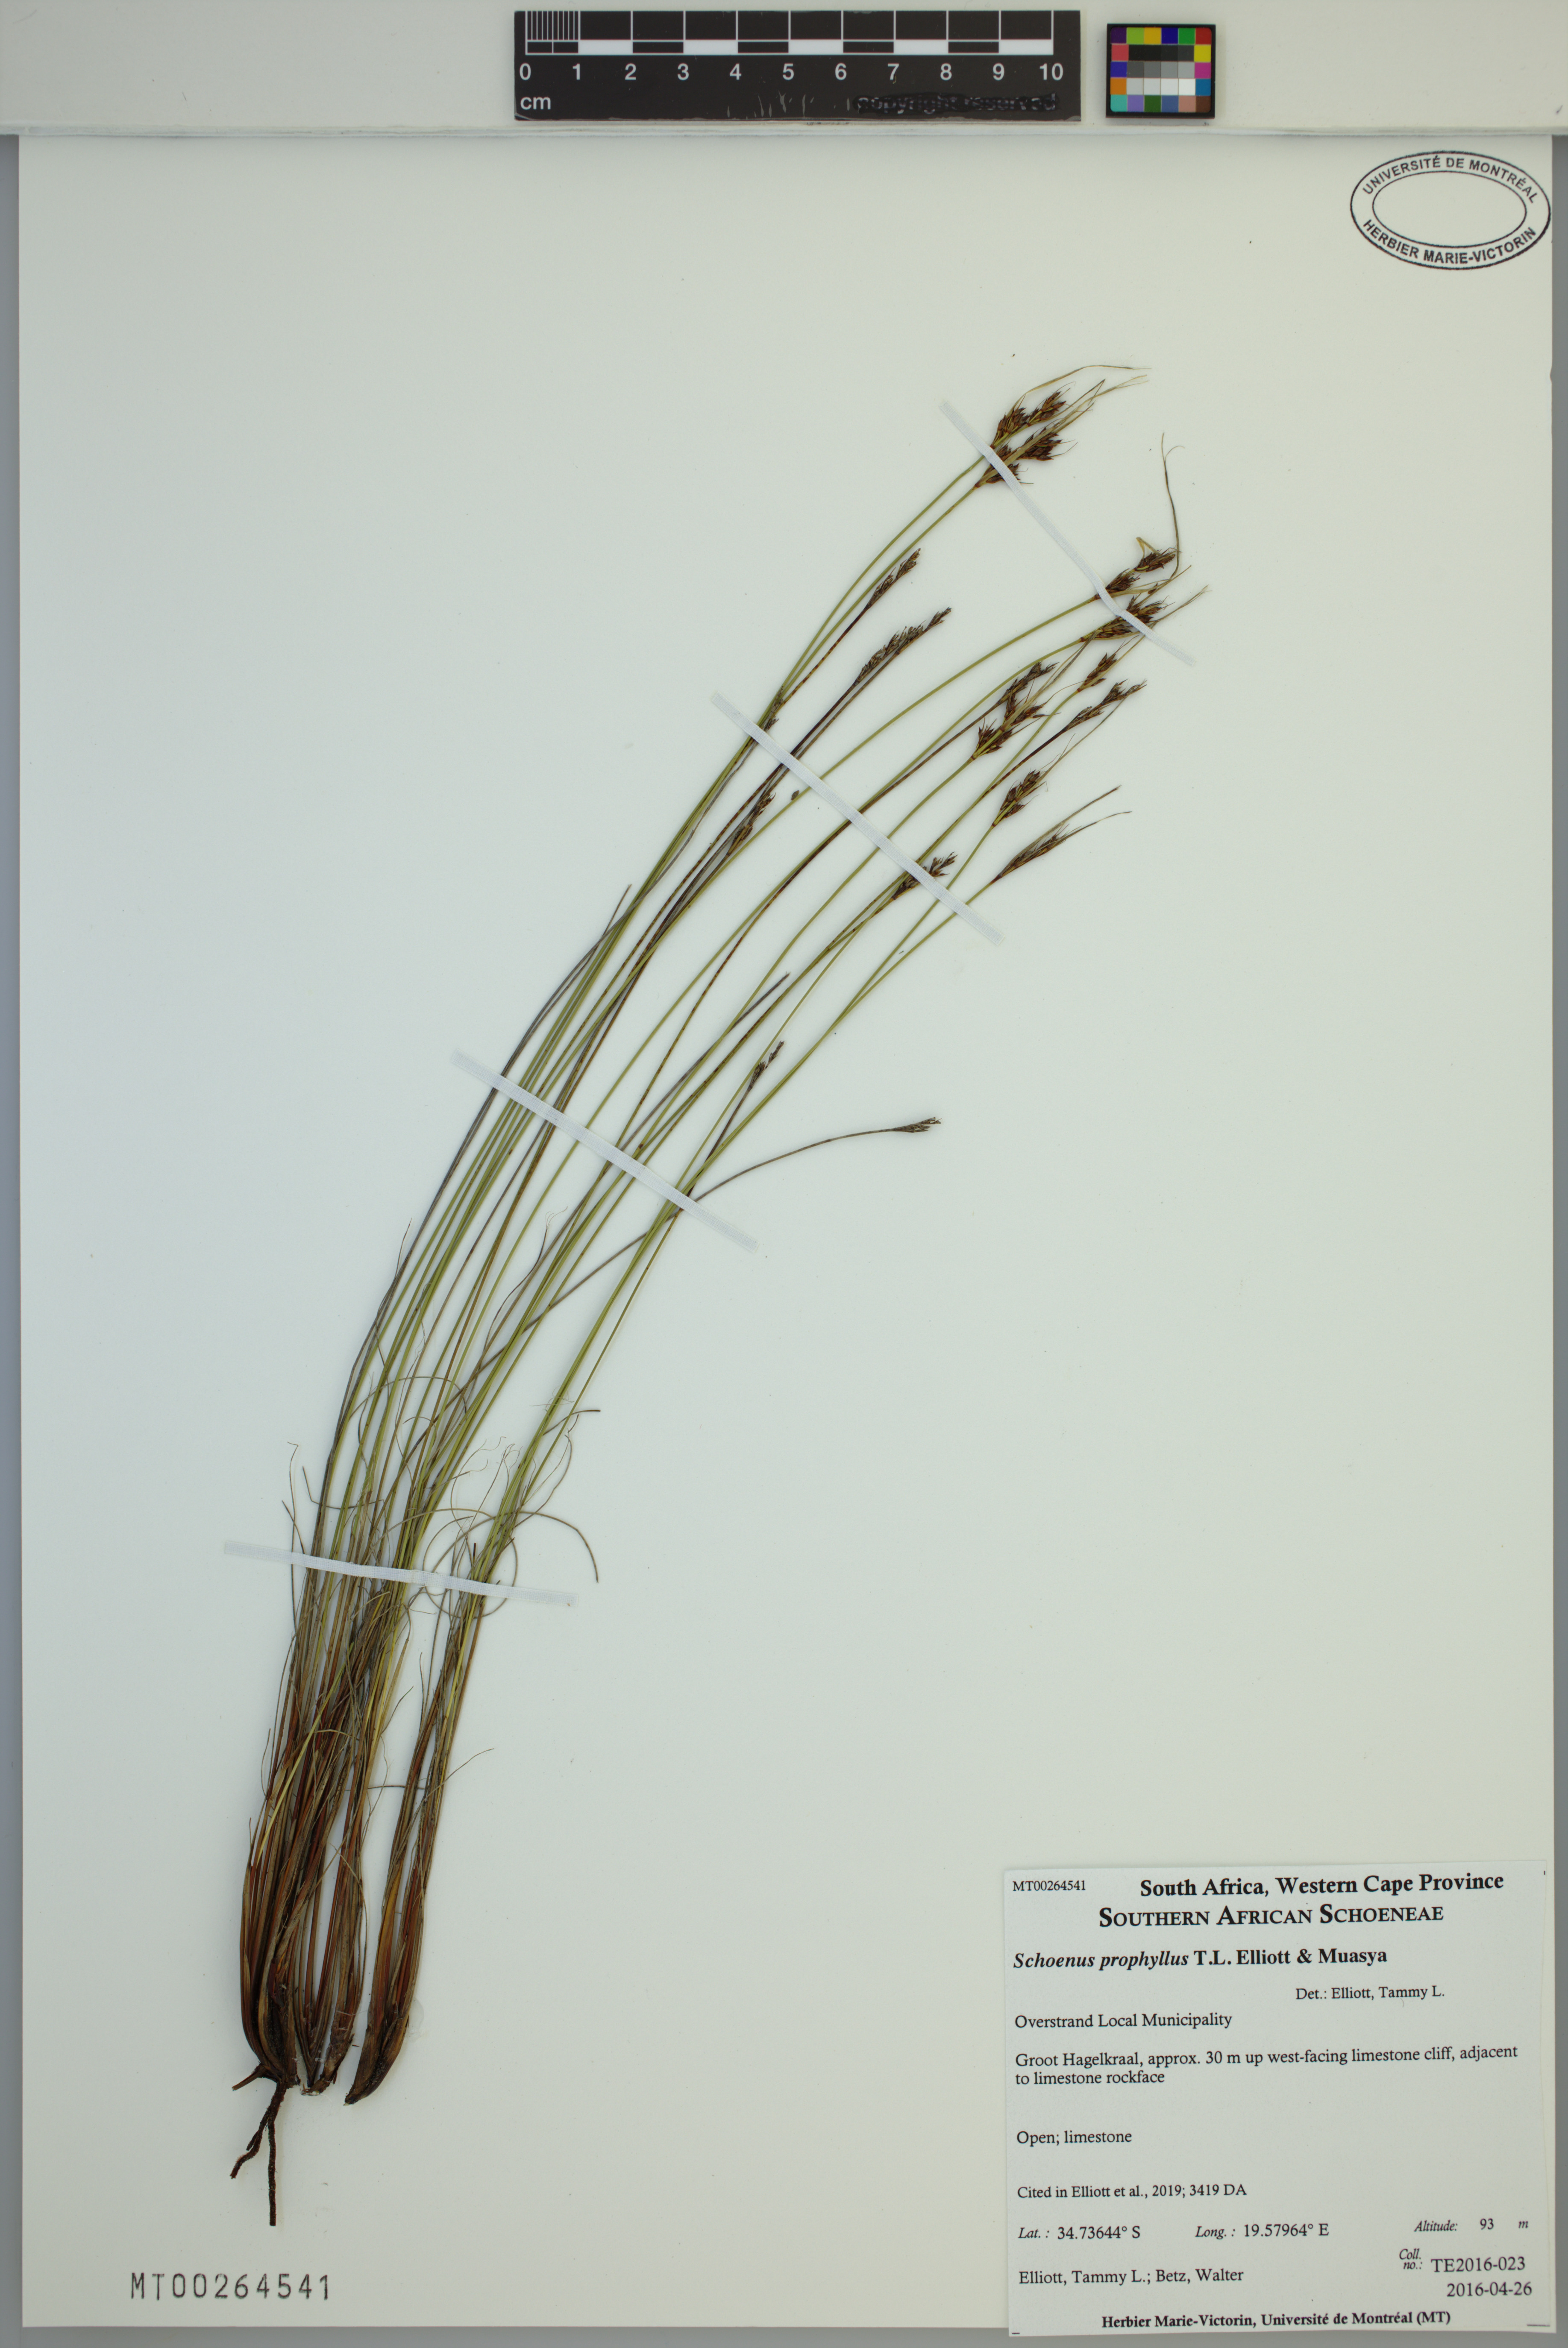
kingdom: Plantae
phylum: Tracheophyta
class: Liliopsida
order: Poales
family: Cyperaceae
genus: Schoenus
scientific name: Schoenus prophyllus
